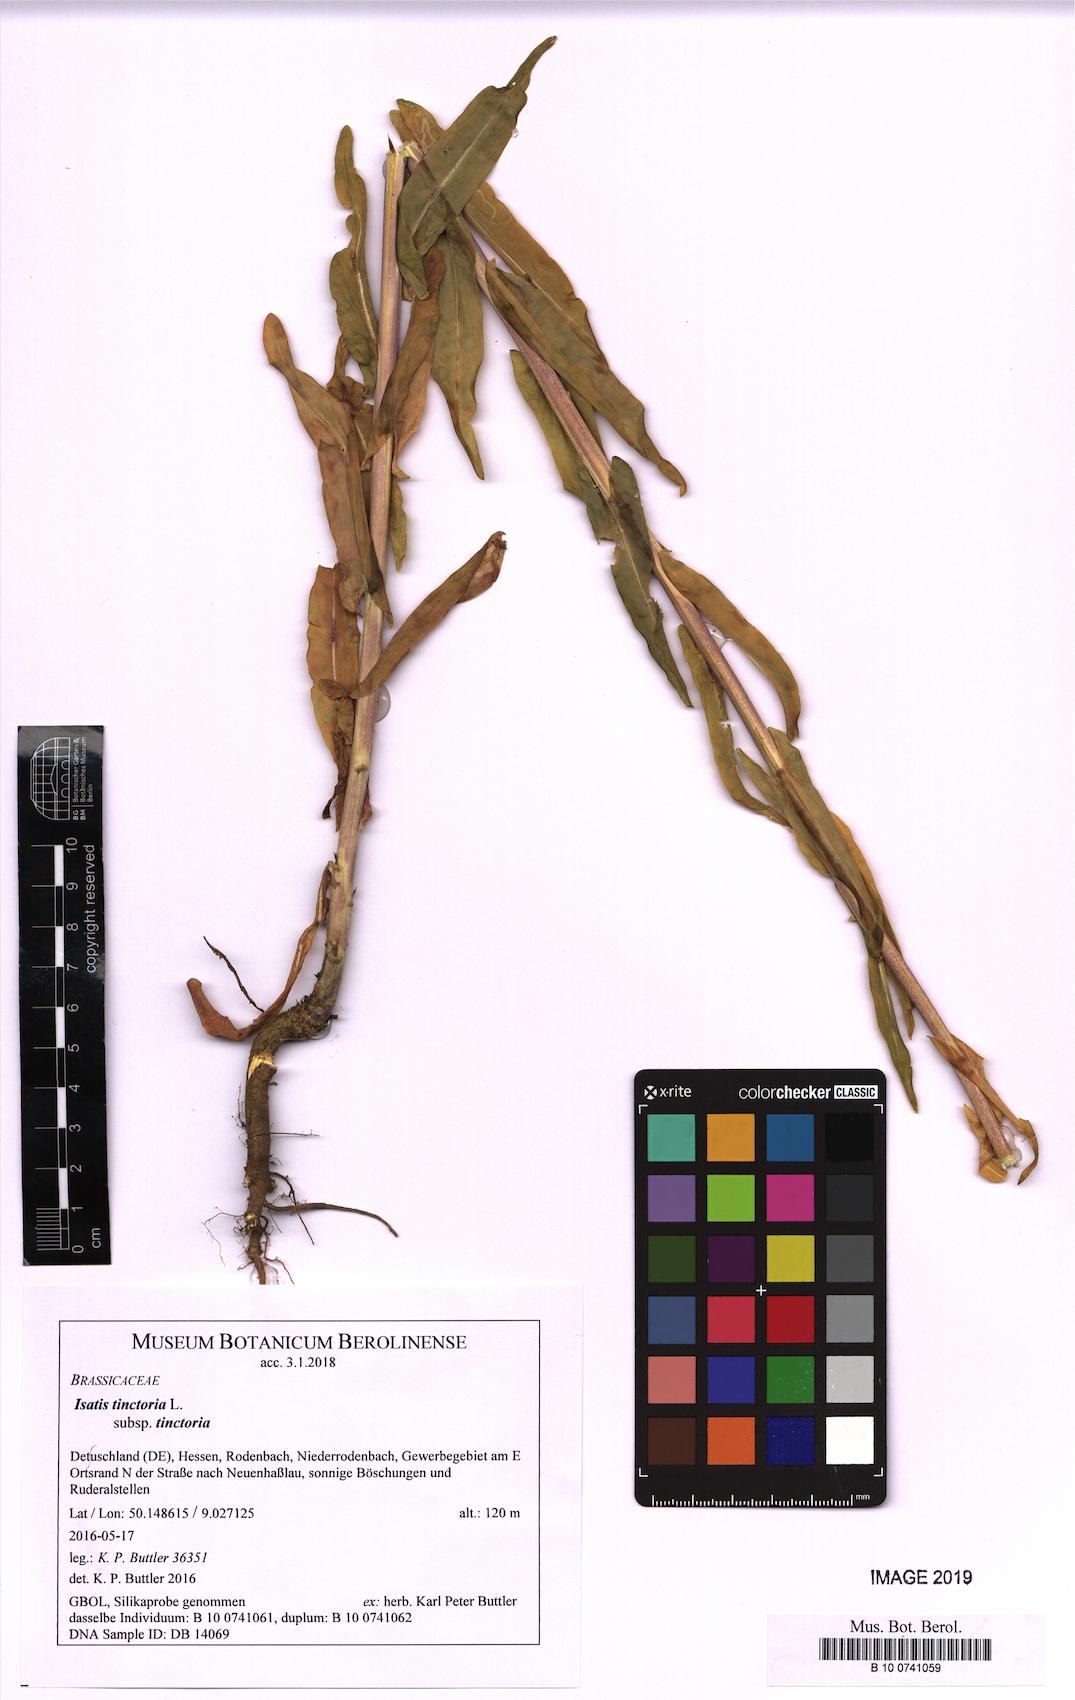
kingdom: Plantae
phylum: Tracheophyta
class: Magnoliopsida
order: Brassicales
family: Brassicaceae
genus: Isatis
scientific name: Isatis tinctoria
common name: Woad
